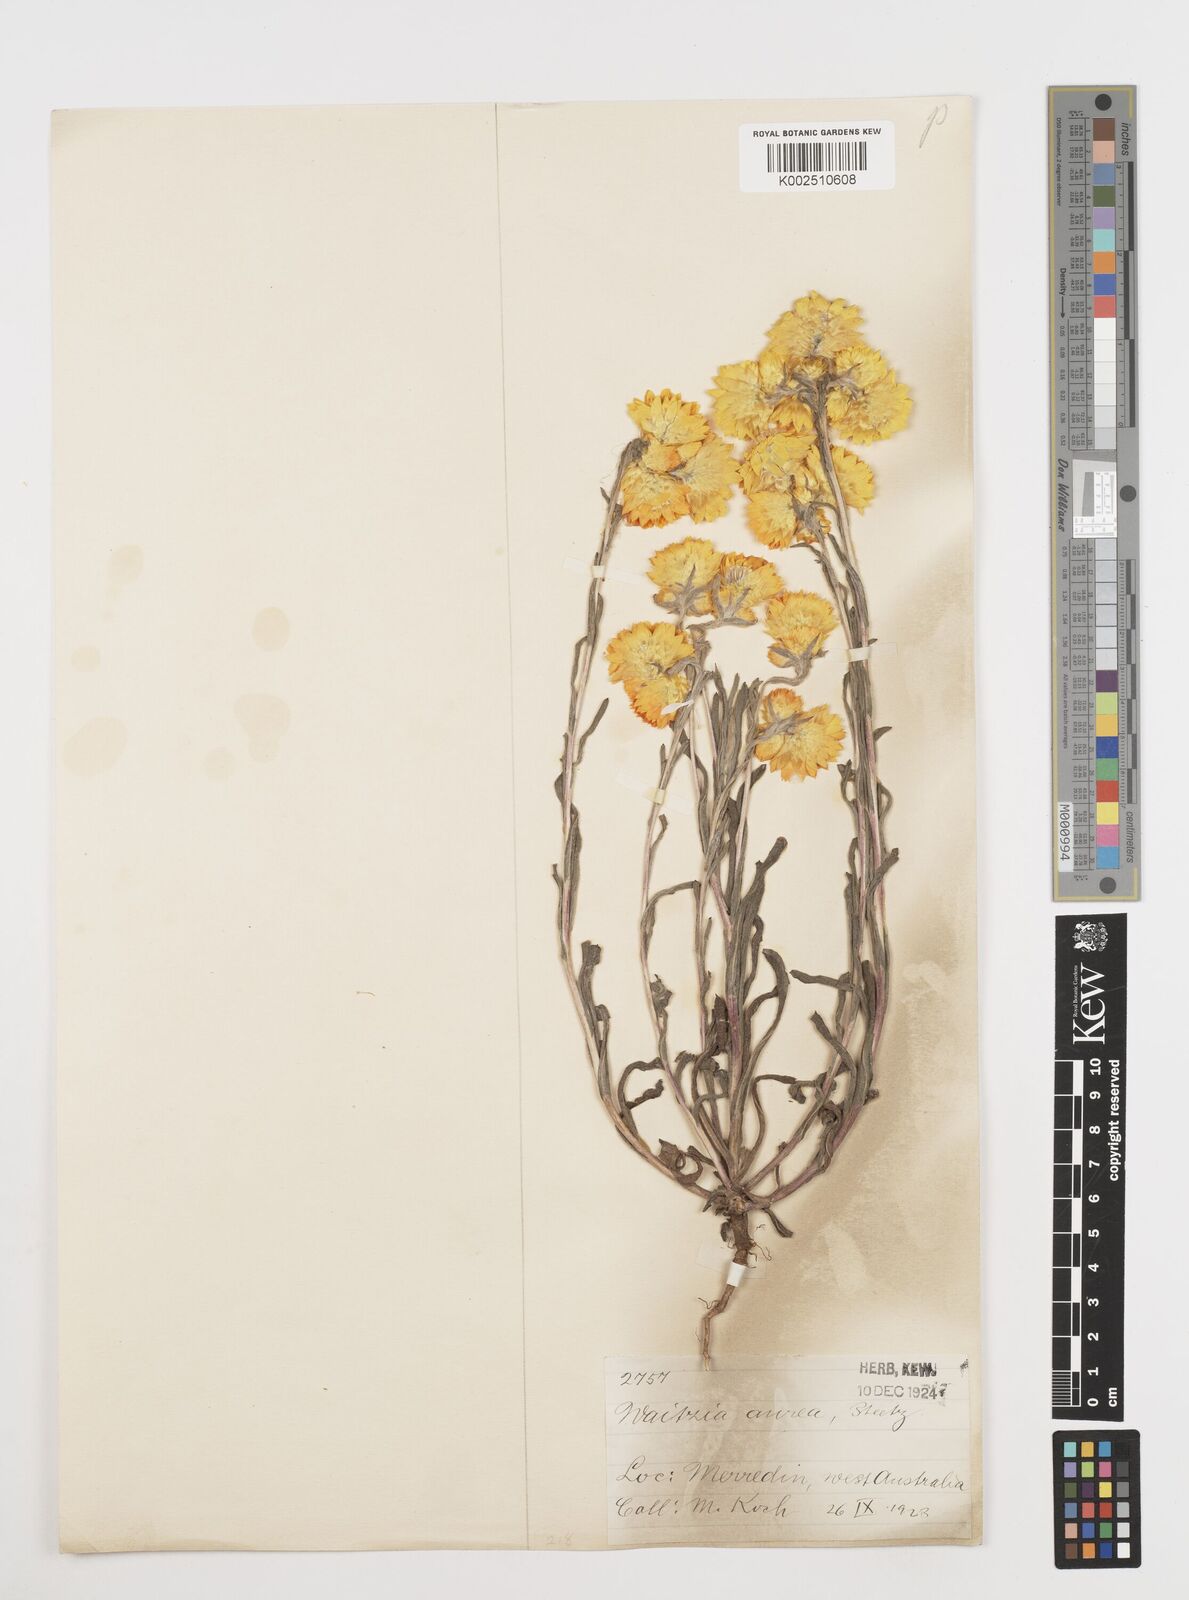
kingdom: Plantae
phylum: Tracheophyta
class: Magnoliopsida
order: Asterales
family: Asteraceae
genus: Waitzia
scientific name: Waitzia nitida
